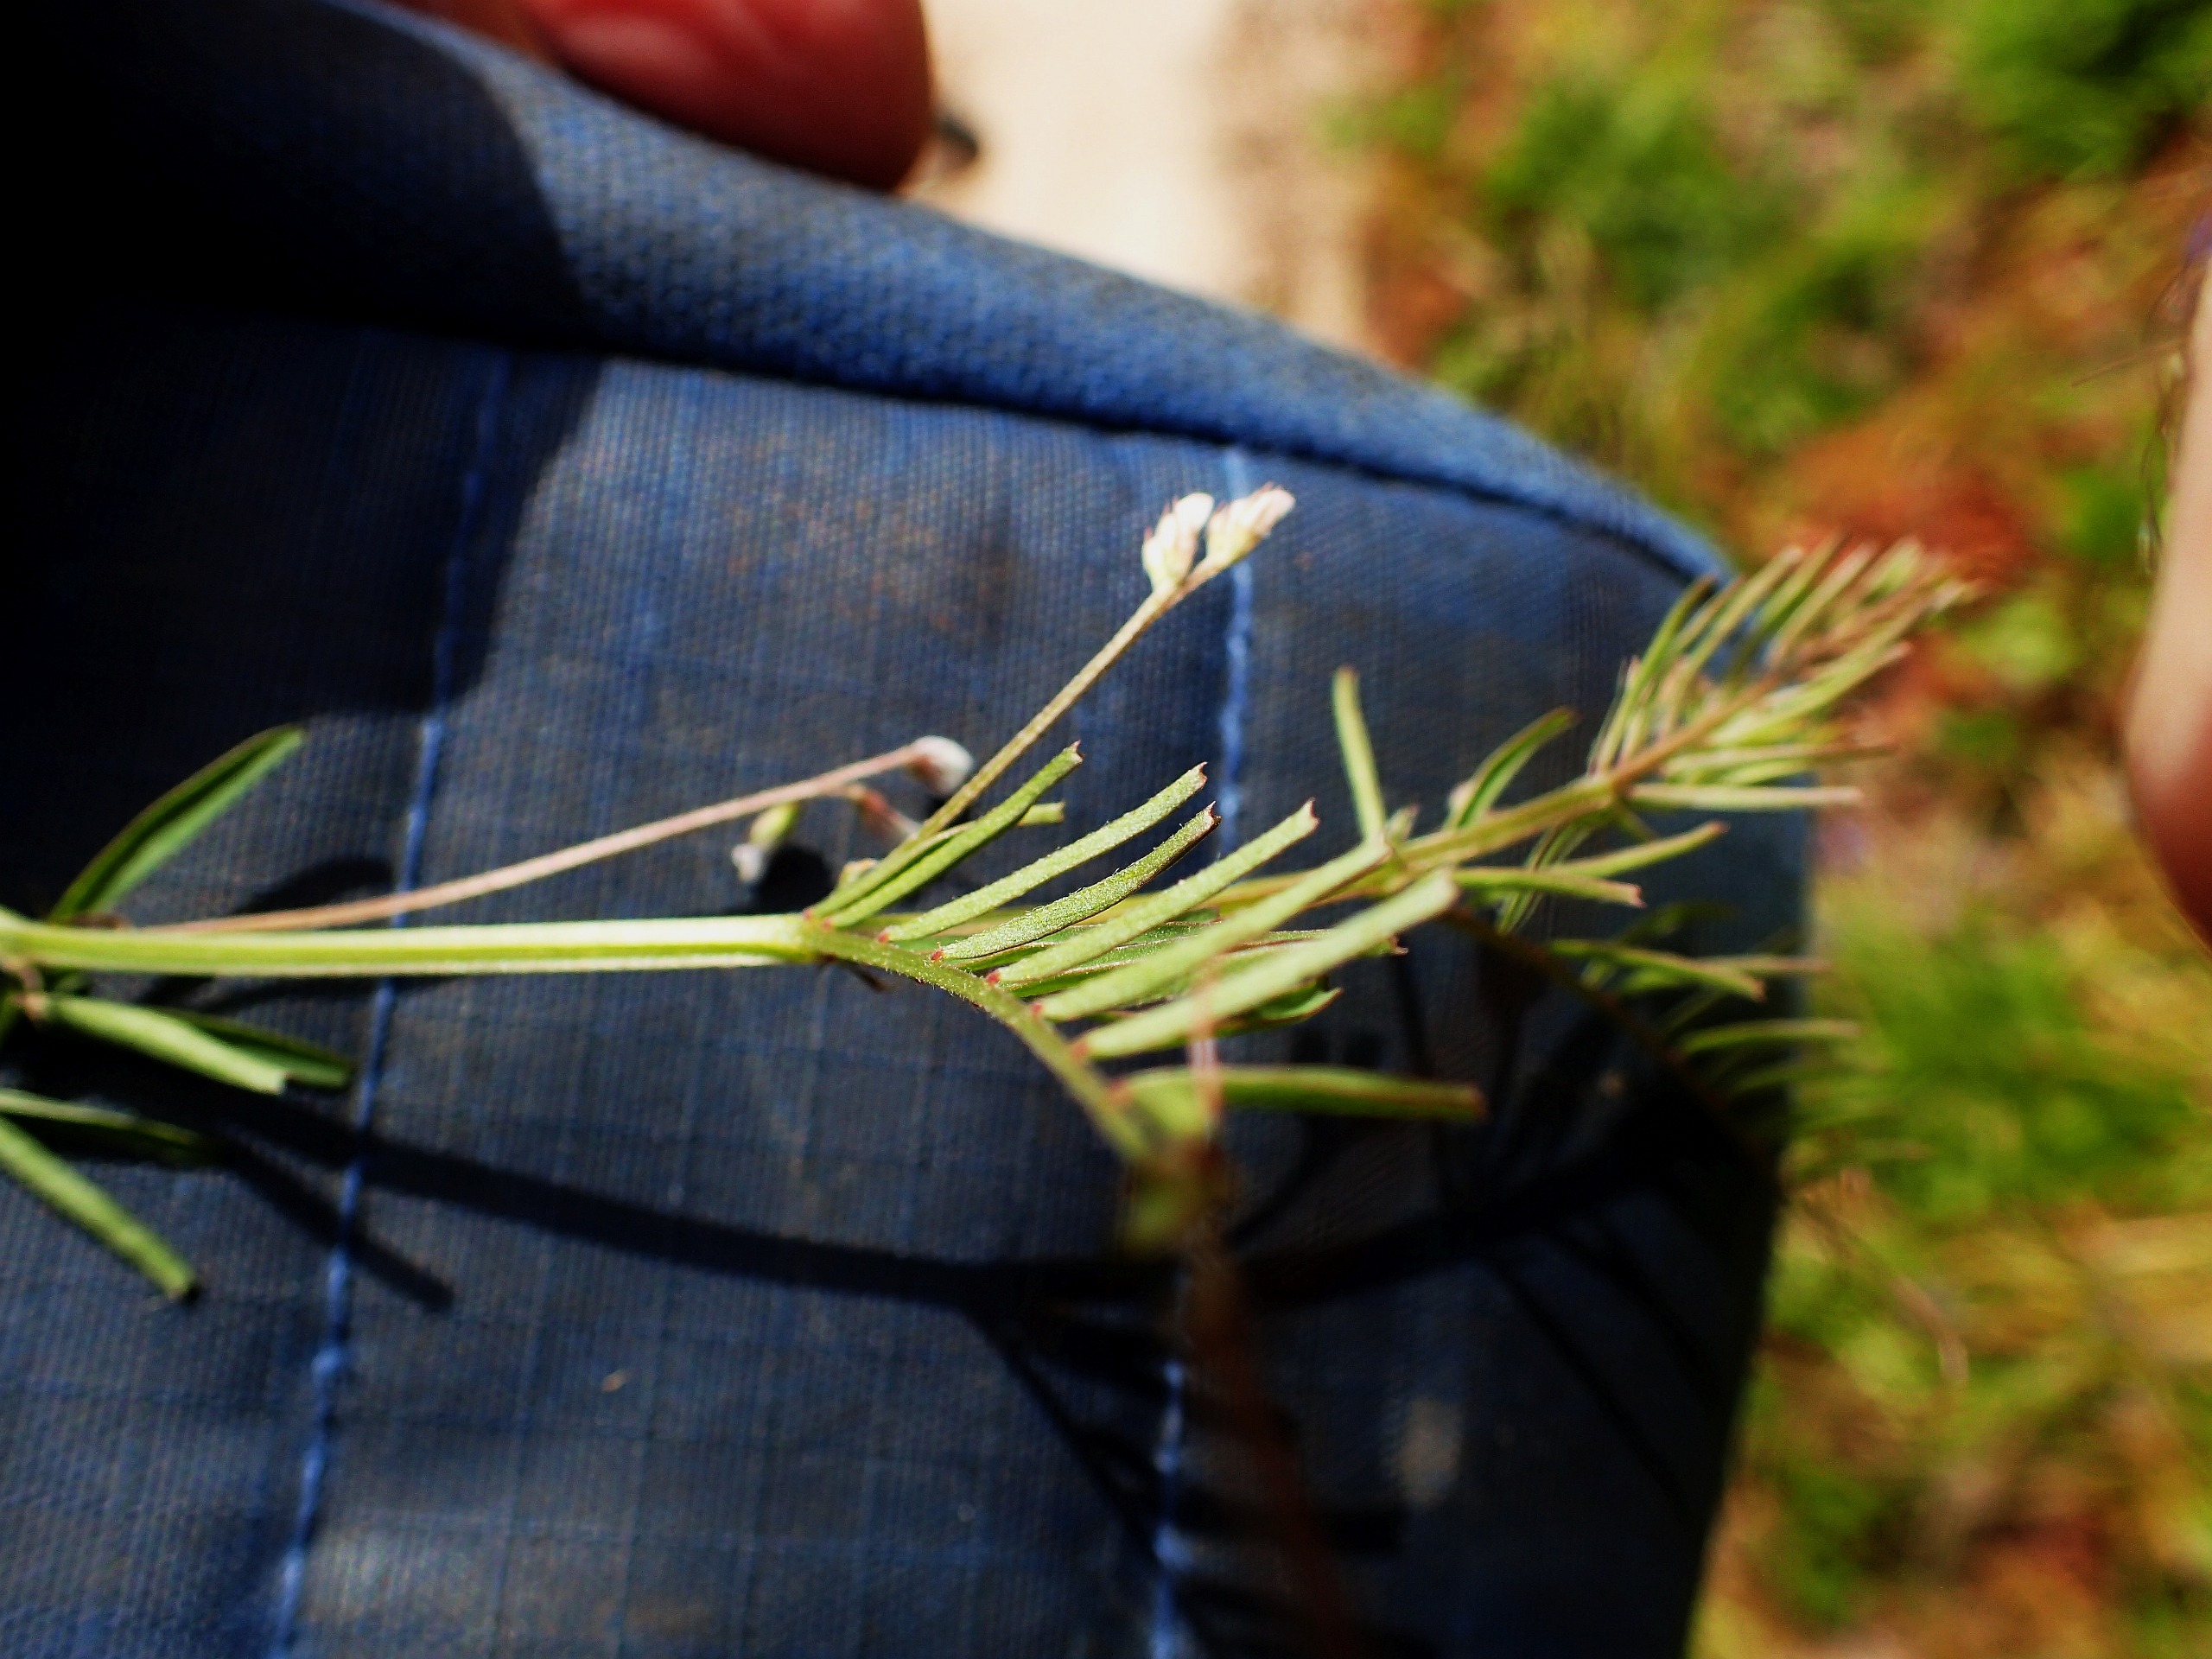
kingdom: Plantae
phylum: Tracheophyta
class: Magnoliopsida
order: Fabales
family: Fabaceae
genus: Vicia
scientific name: Vicia hirsuta
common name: Tofrøet vikke
